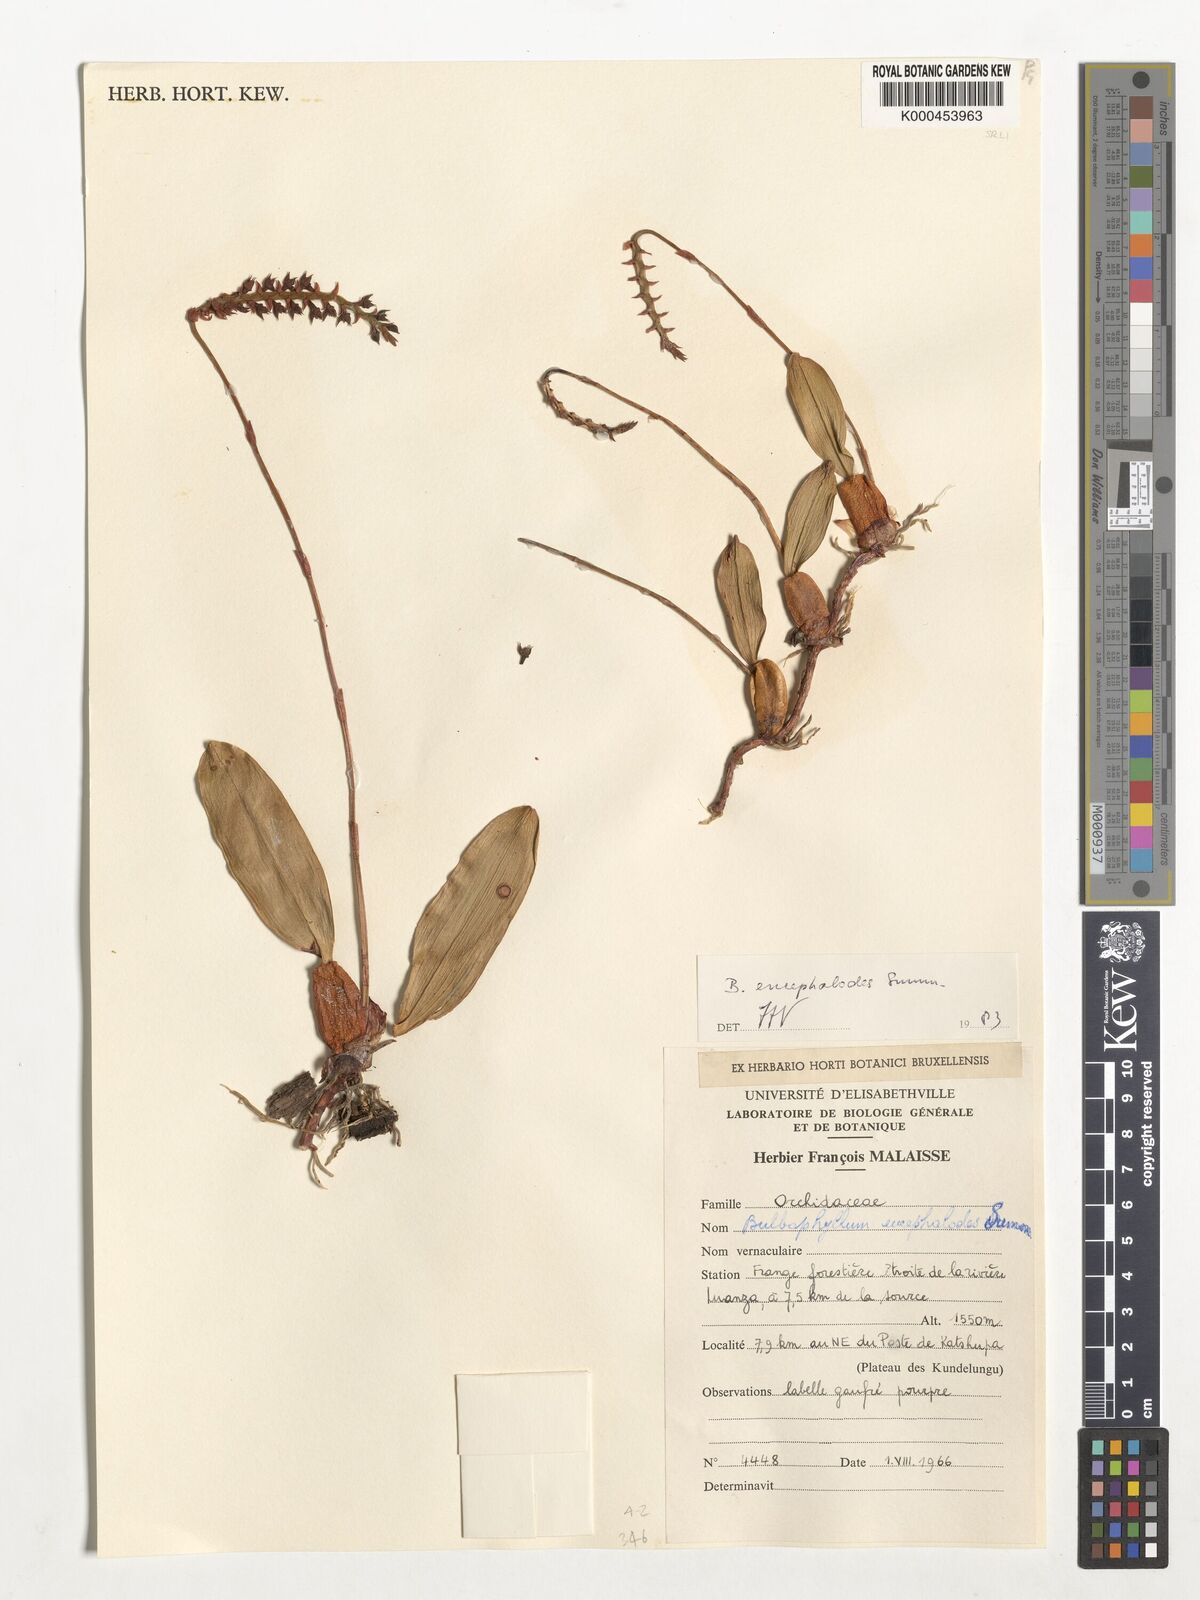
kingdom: Plantae
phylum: Tracheophyta
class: Liliopsida
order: Asparagales
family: Orchidaceae
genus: Bulbophyllum
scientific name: Bulbophyllum encephalodes
